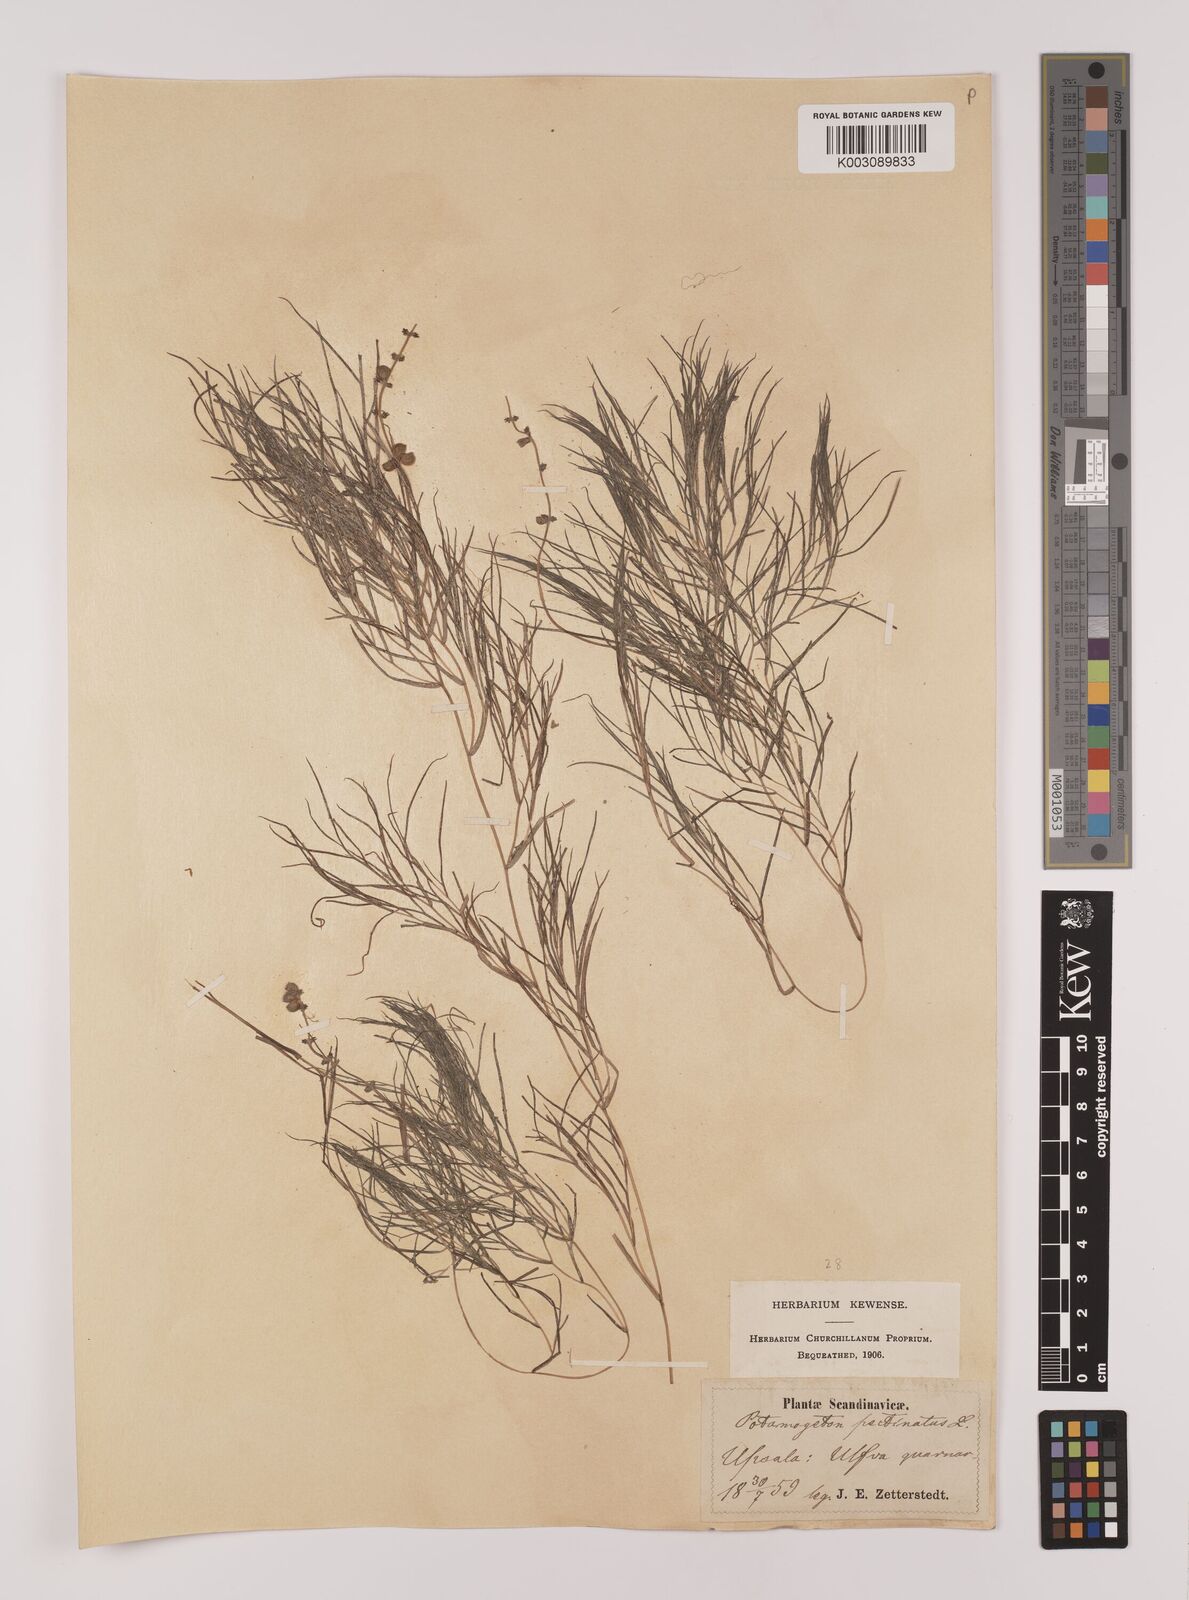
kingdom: Plantae
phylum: Tracheophyta
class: Liliopsida
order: Alismatales
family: Potamogetonaceae
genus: Stuckenia
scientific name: Stuckenia pectinata
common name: Sago pondweed
